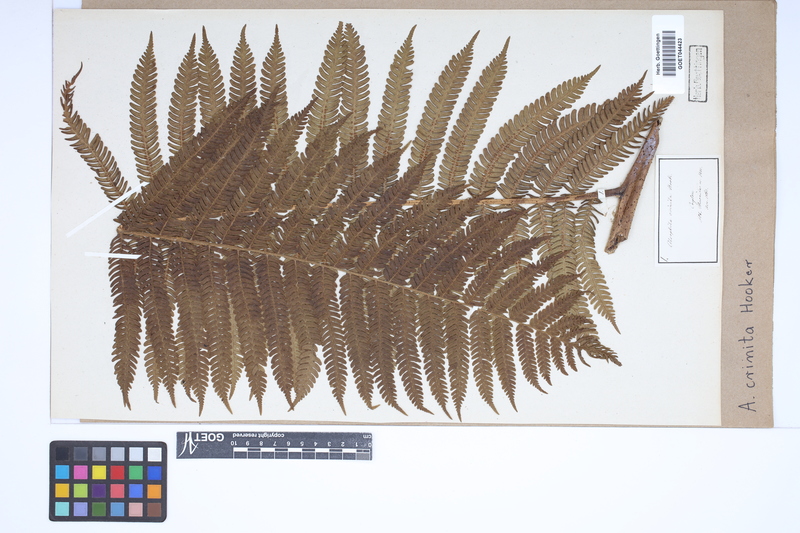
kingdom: Plantae
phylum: Tracheophyta
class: Polypodiopsida
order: Cyatheales
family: Cyatheaceae
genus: Alsophila
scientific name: Alsophila crinita
